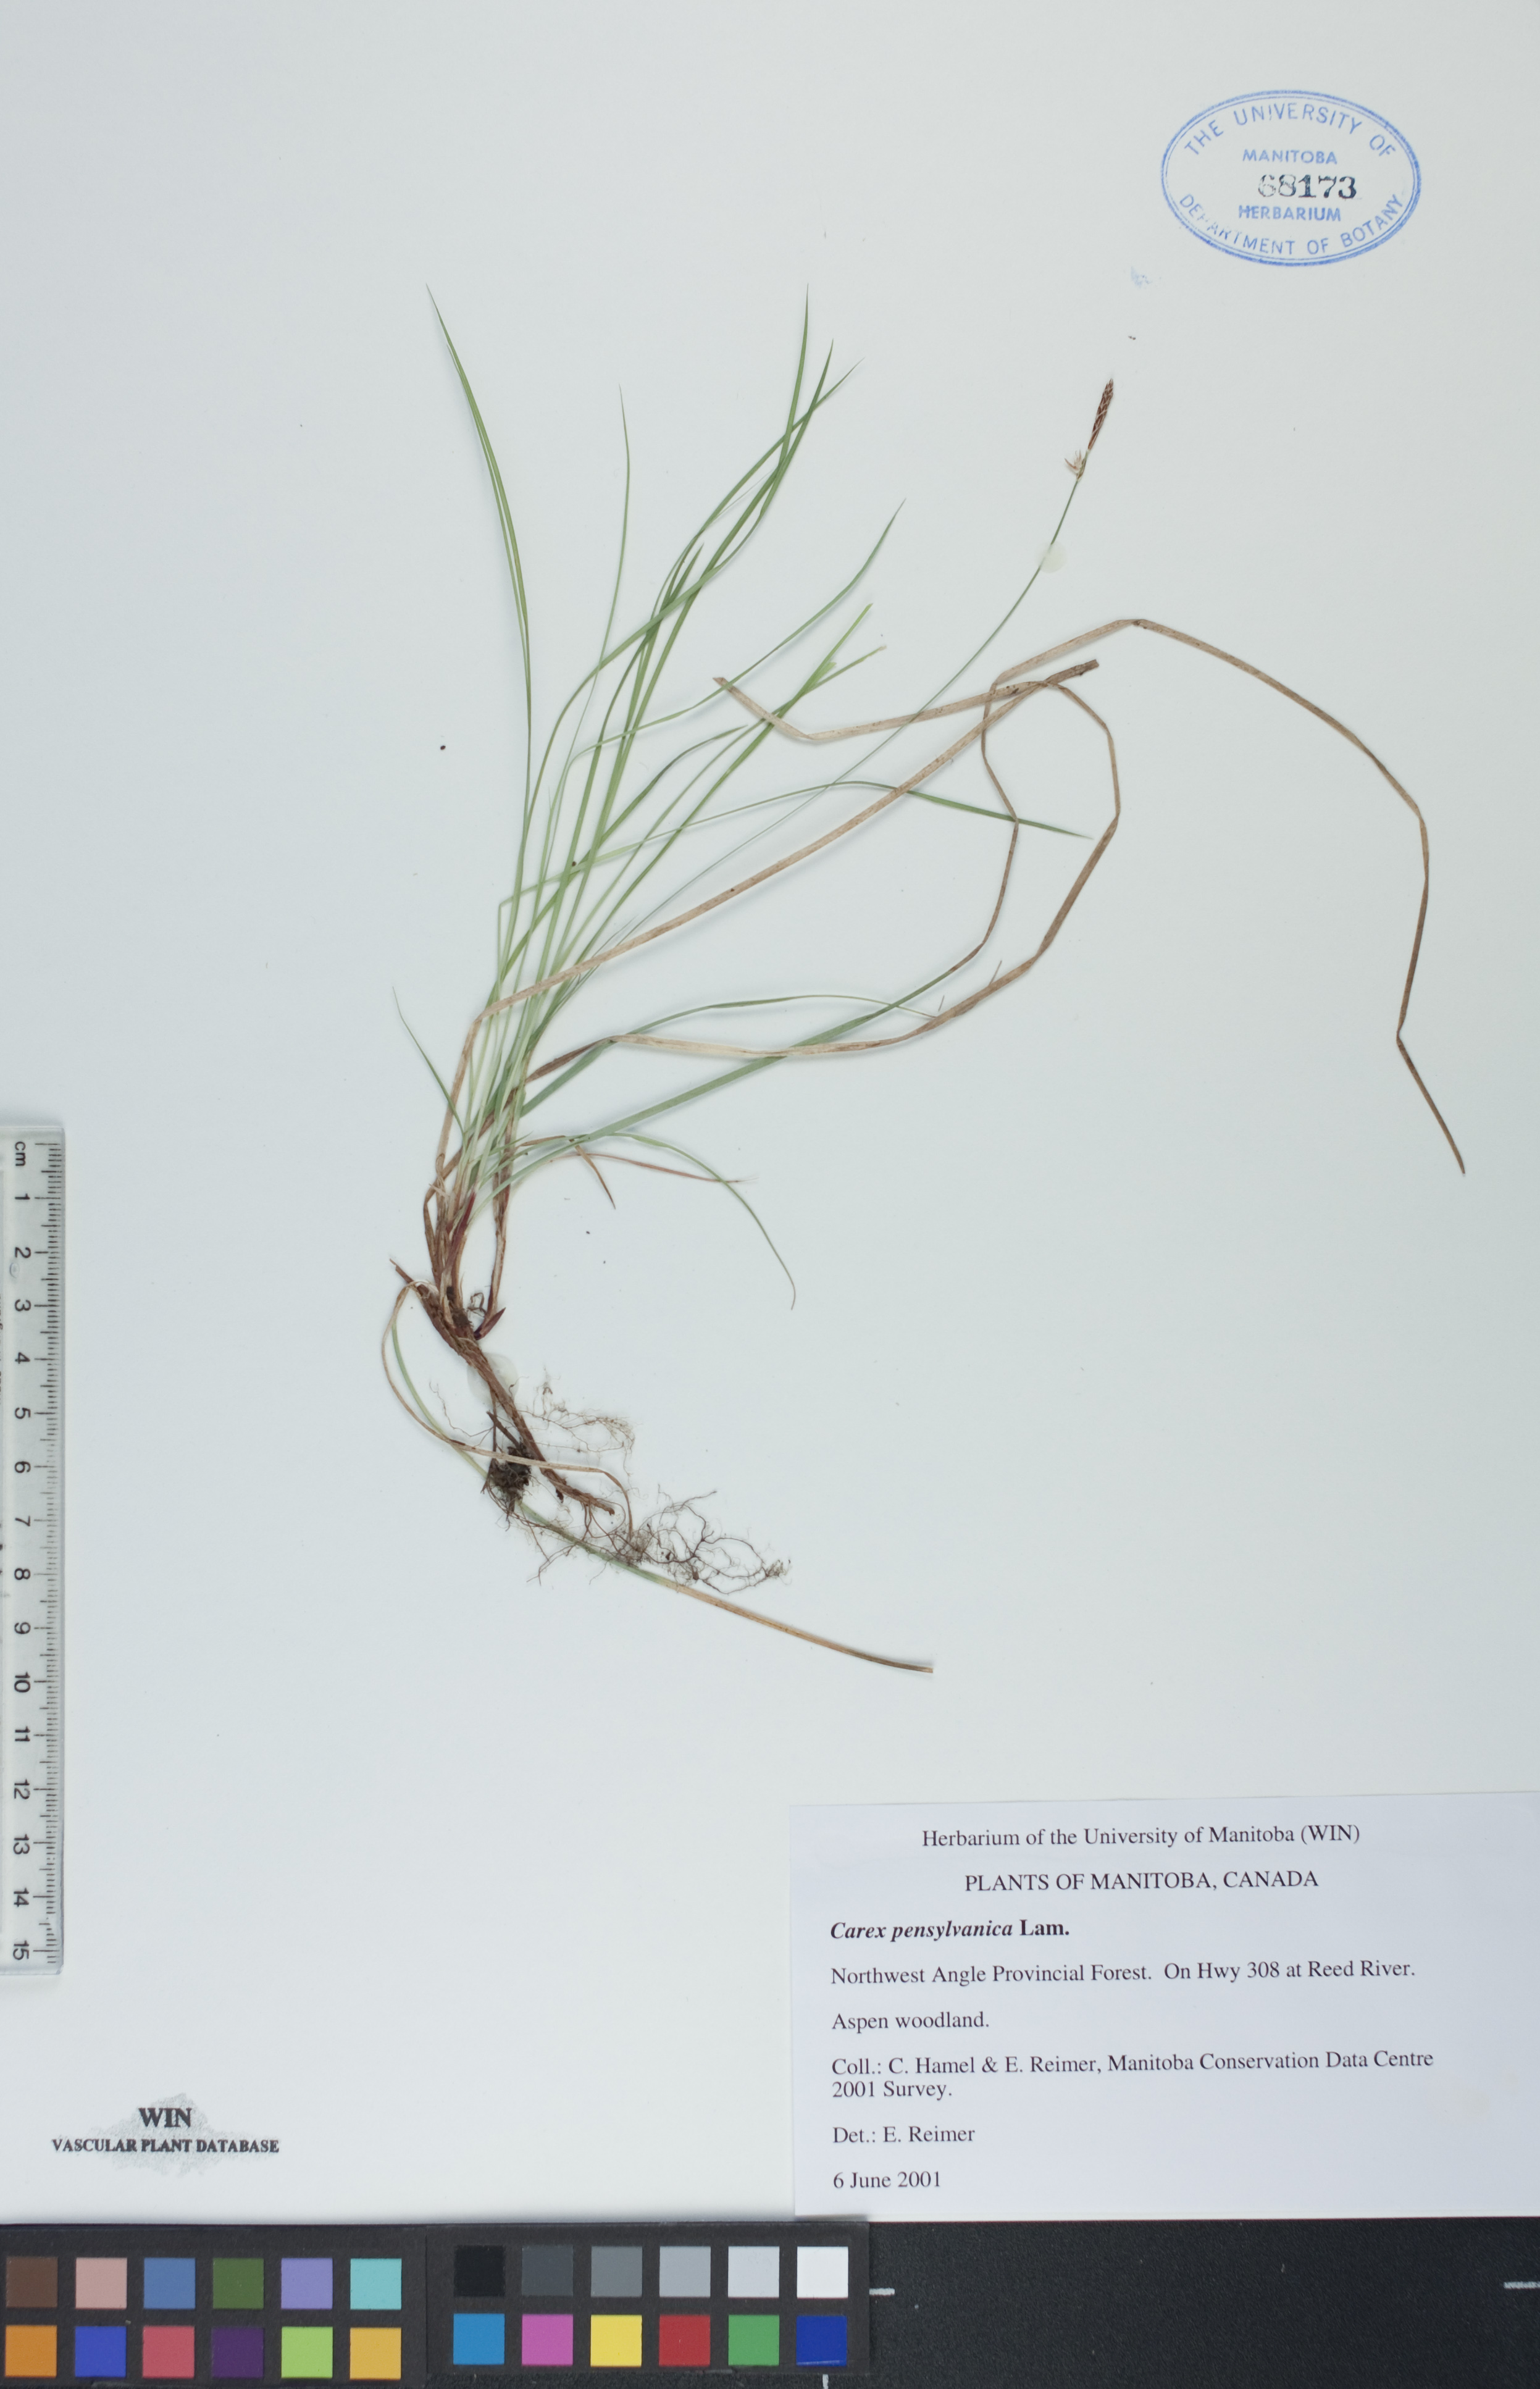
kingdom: Plantae
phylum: Tracheophyta
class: Liliopsida
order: Poales
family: Cyperaceae
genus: Carex
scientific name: Carex pensylvanica
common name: Common oak sedge
